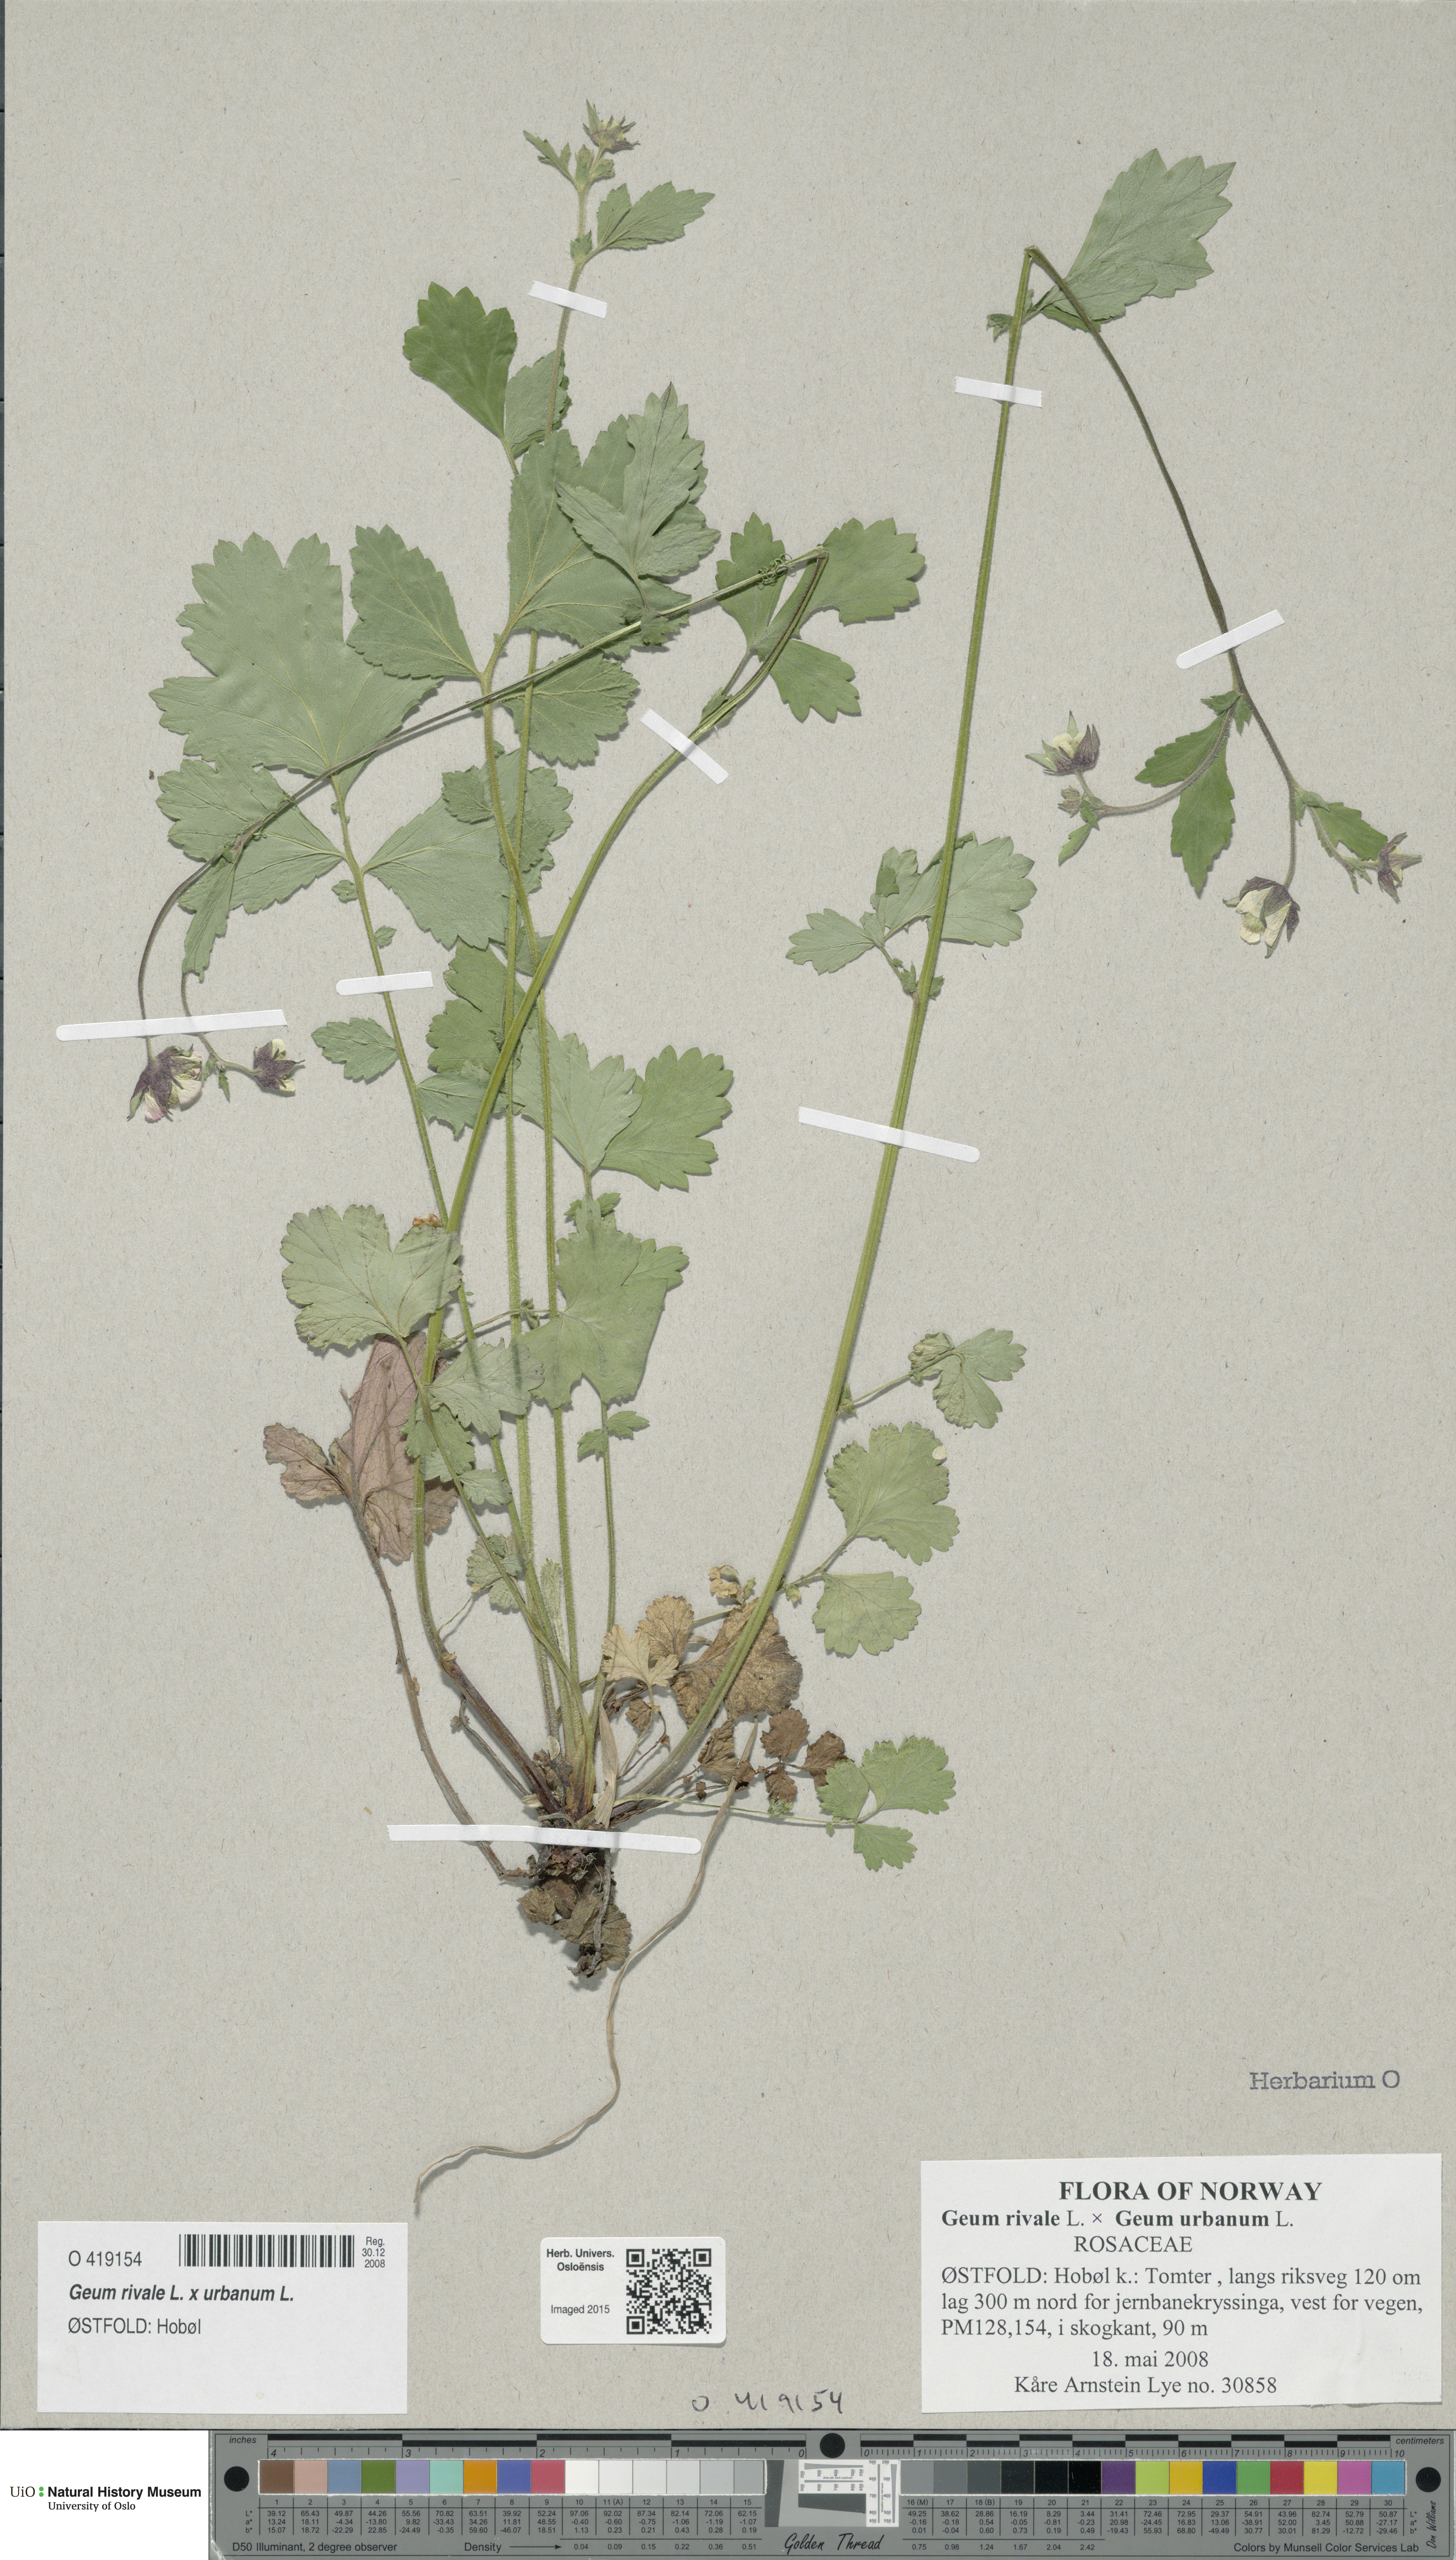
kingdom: Plantae
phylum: Tracheophyta
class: Magnoliopsida
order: Rosales
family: Rosaceae
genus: Geum
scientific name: Geum
